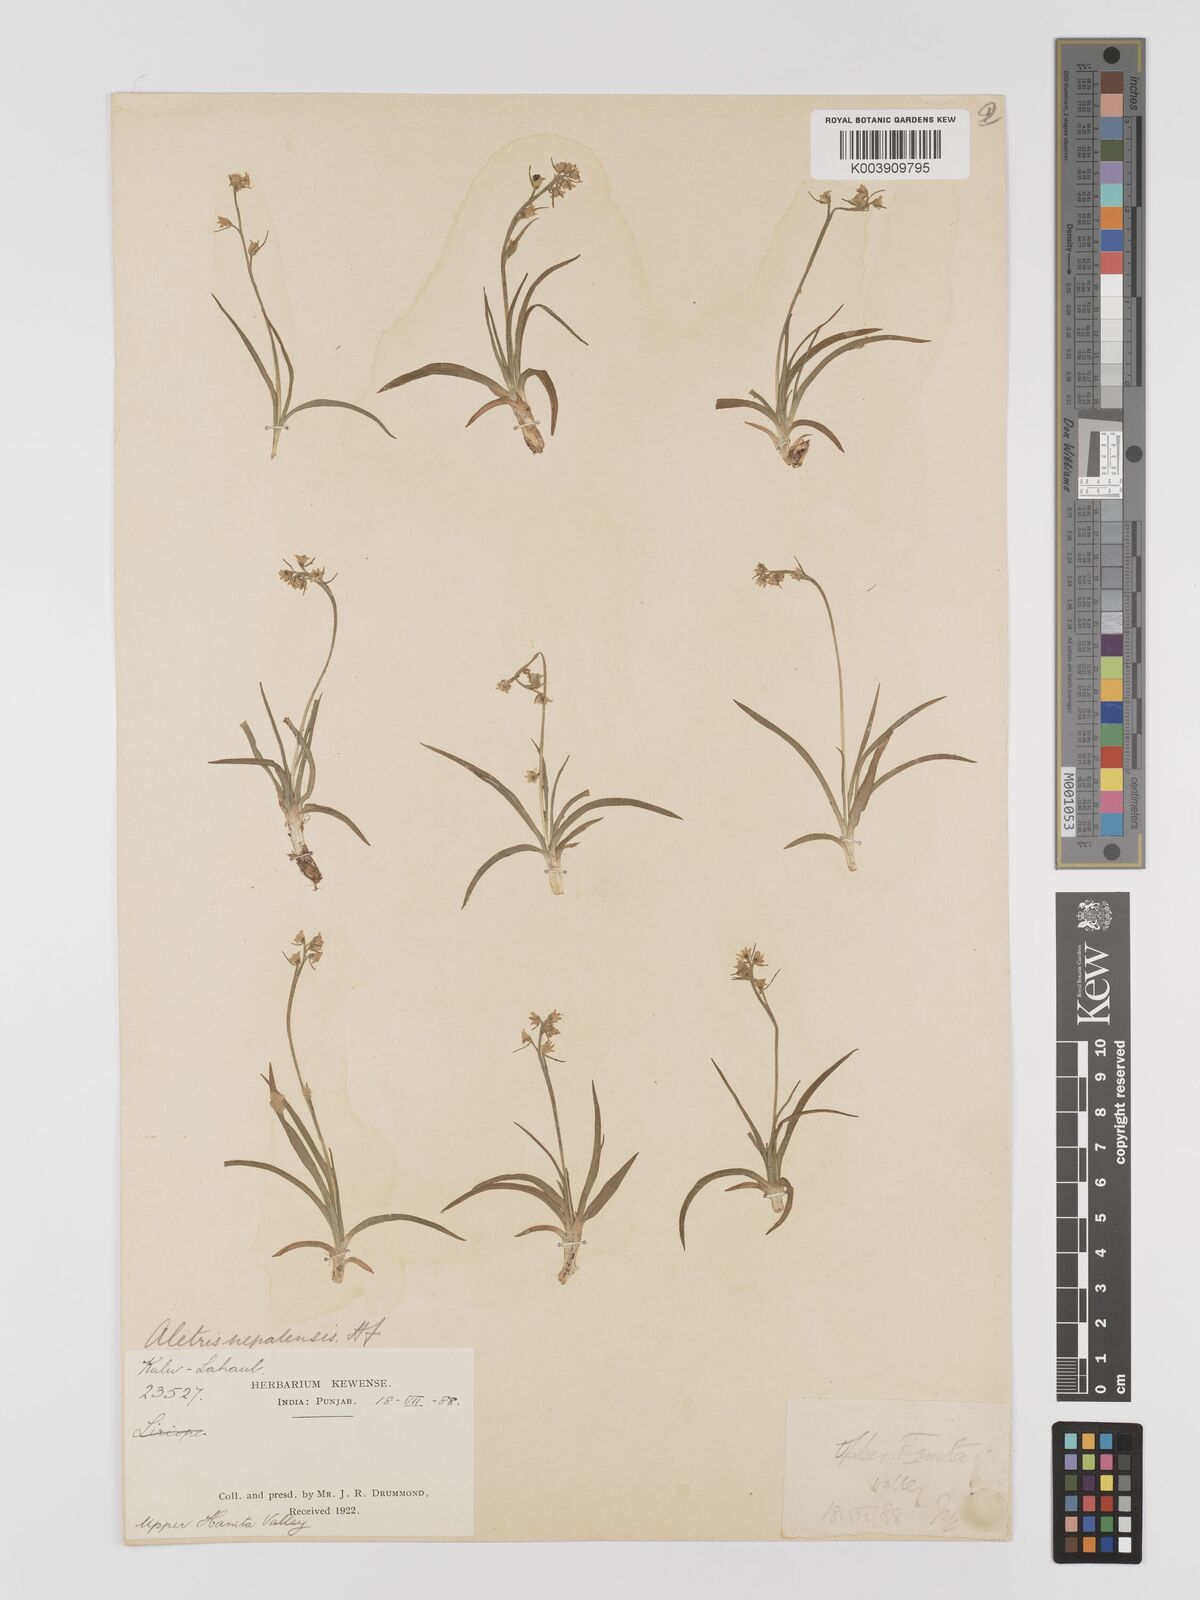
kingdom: Plantae
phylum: Tracheophyta
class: Liliopsida
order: Dioscoreales
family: Nartheciaceae
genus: Aletris
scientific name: Aletris pauciflora
